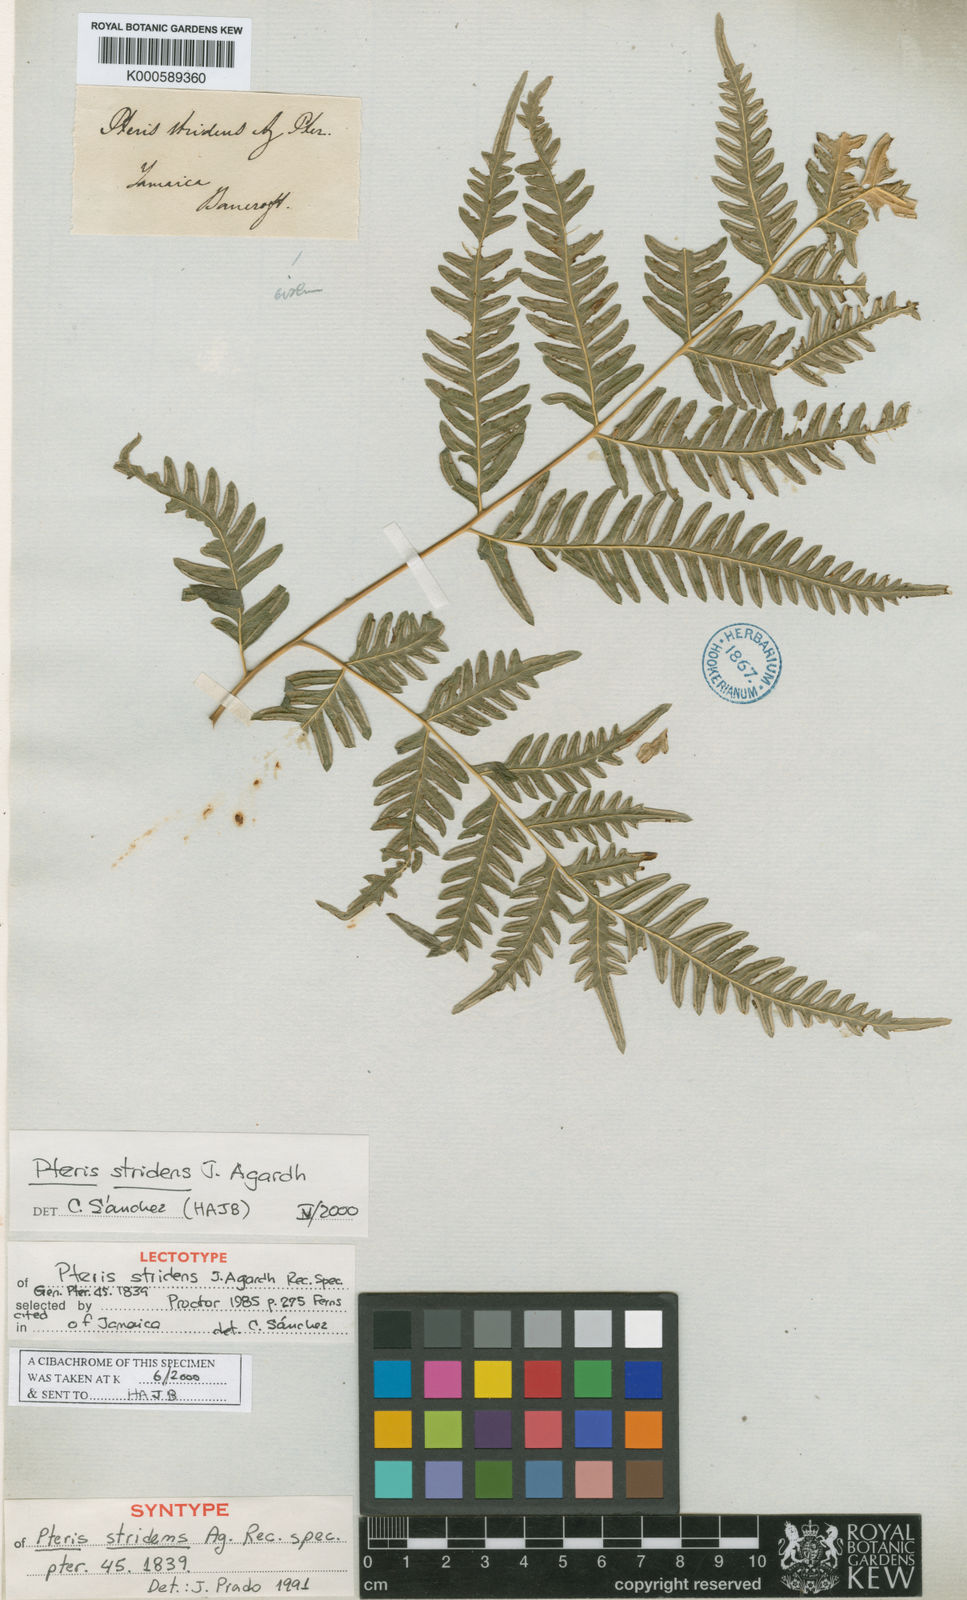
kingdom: Plantae
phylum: Tracheophyta
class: Polypodiopsida
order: Polypodiales
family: Pteridaceae
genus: Pteris
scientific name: Pteris deflexa
